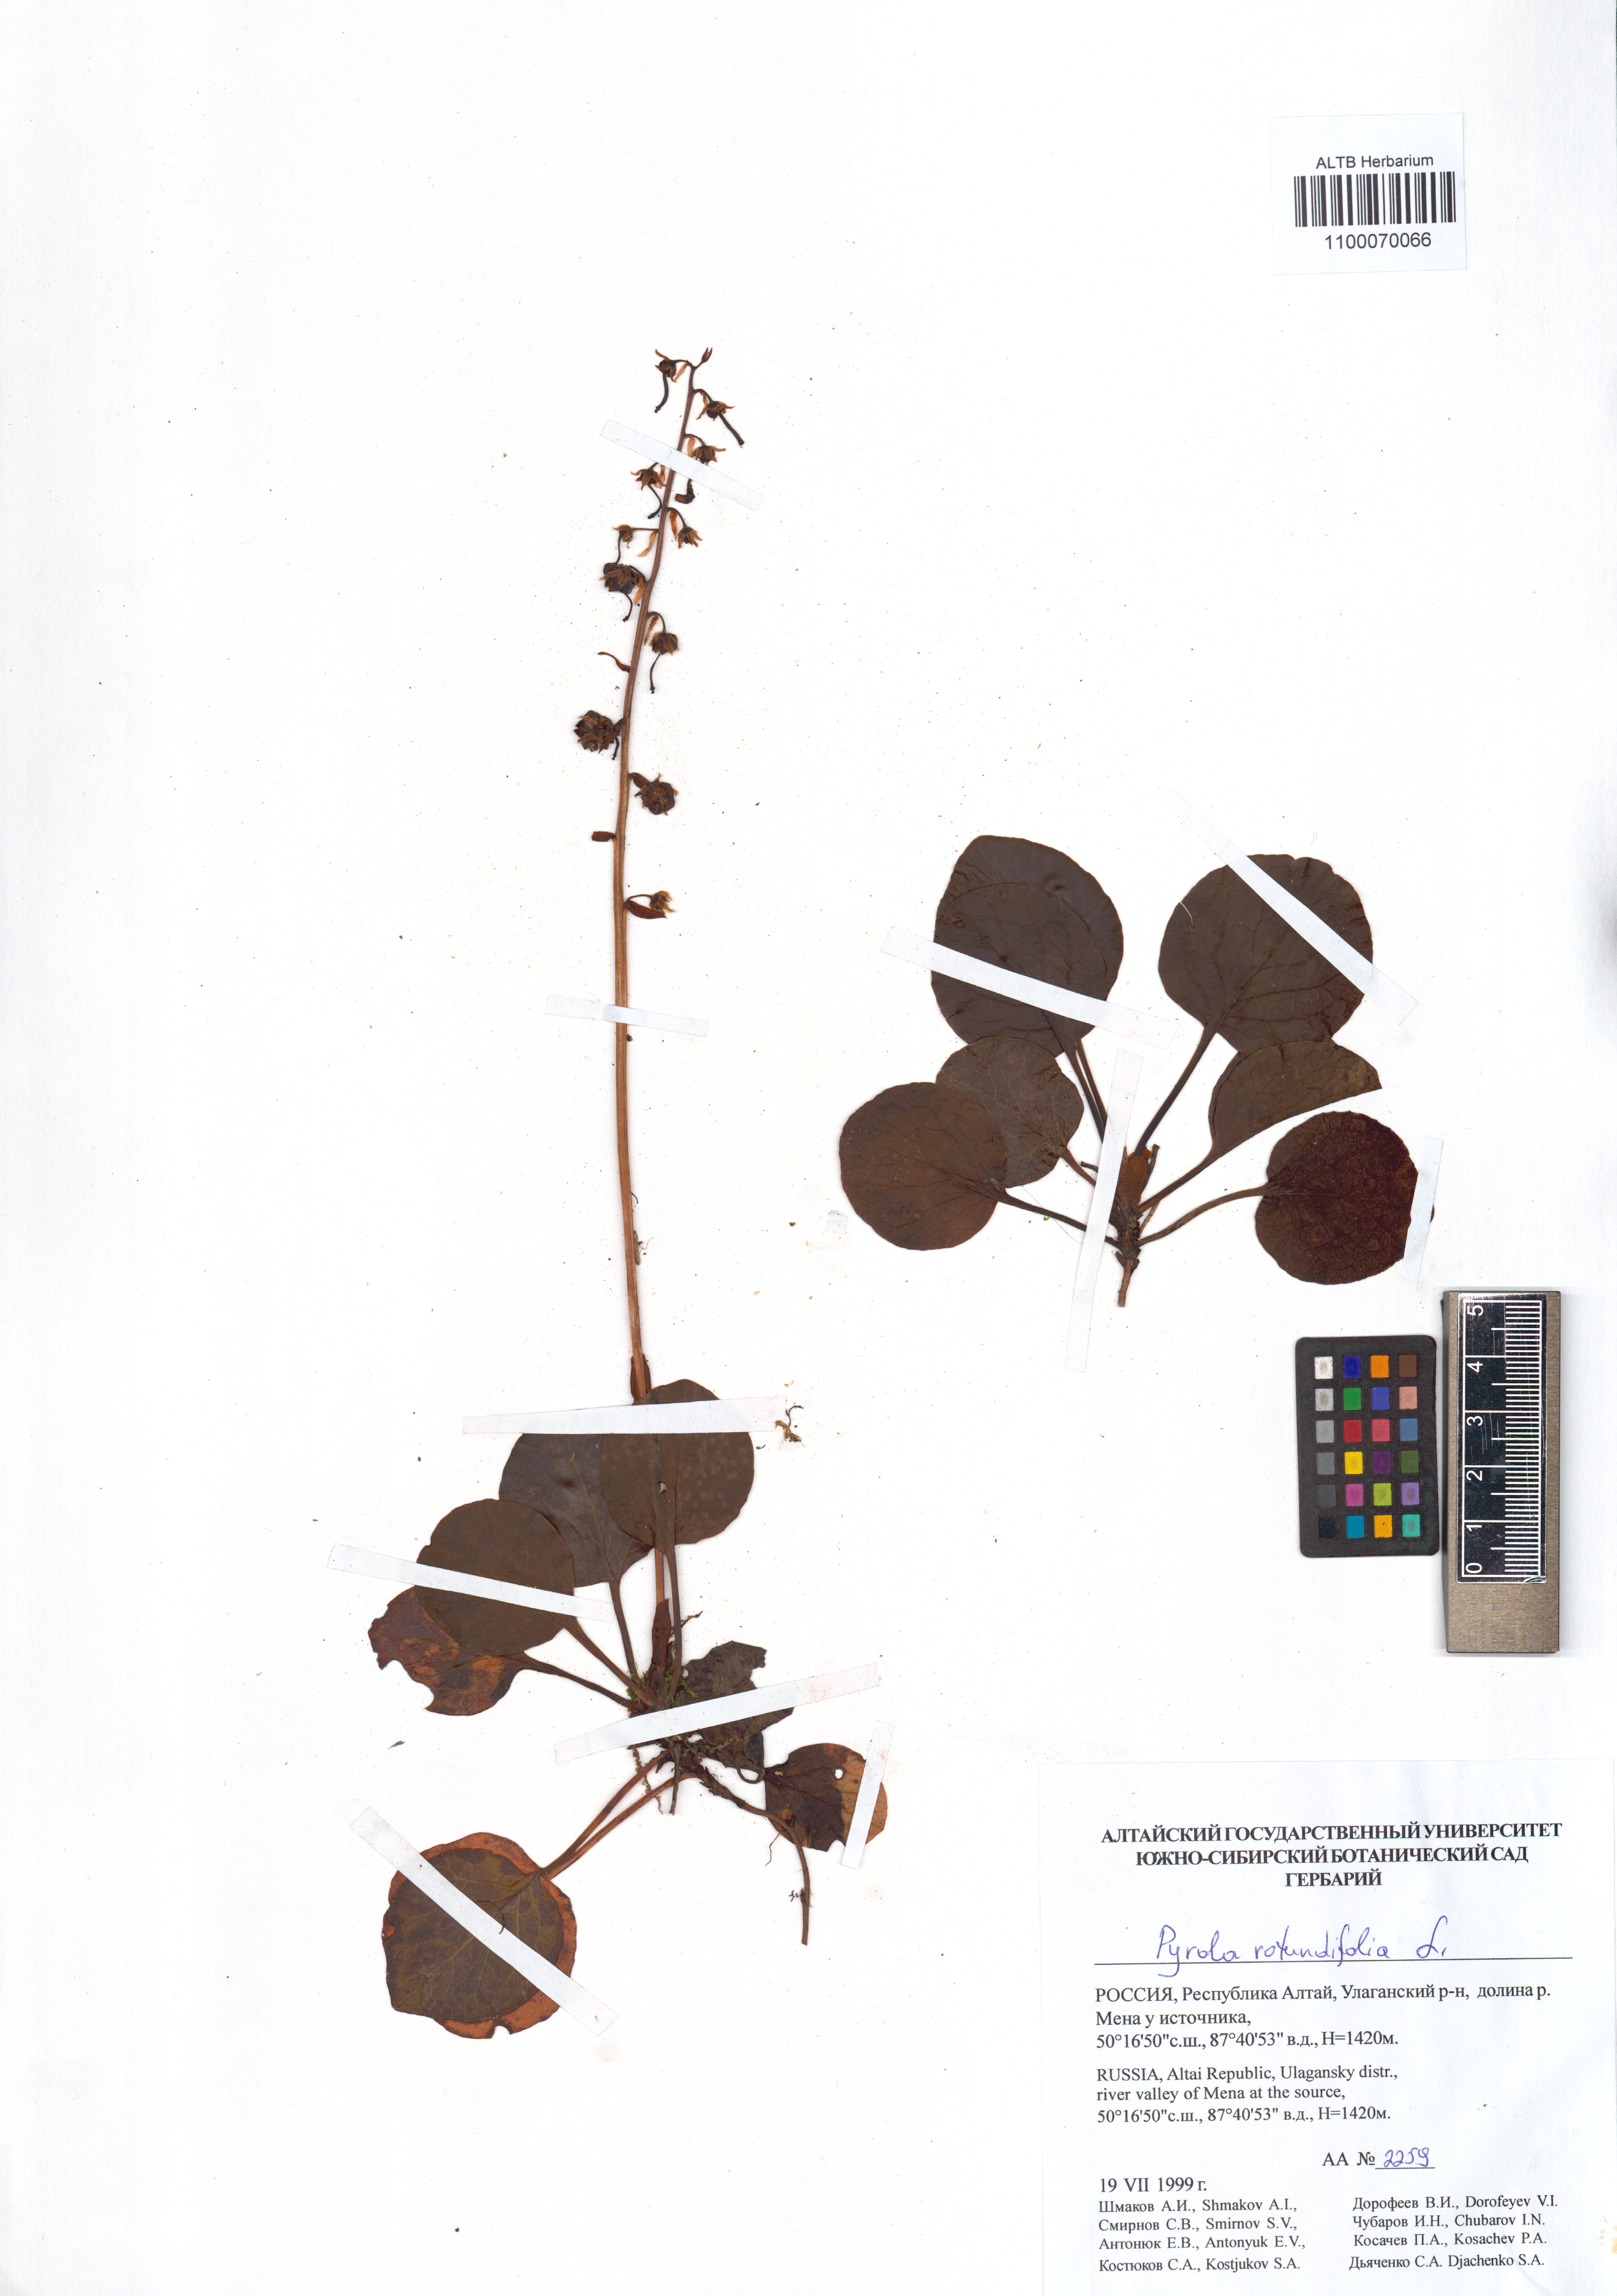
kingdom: Plantae
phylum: Tracheophyta
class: Magnoliopsida
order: Ericales
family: Ericaceae
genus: Pyrola
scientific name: Pyrola rotundifolia
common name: Round-leaved wintergreen
